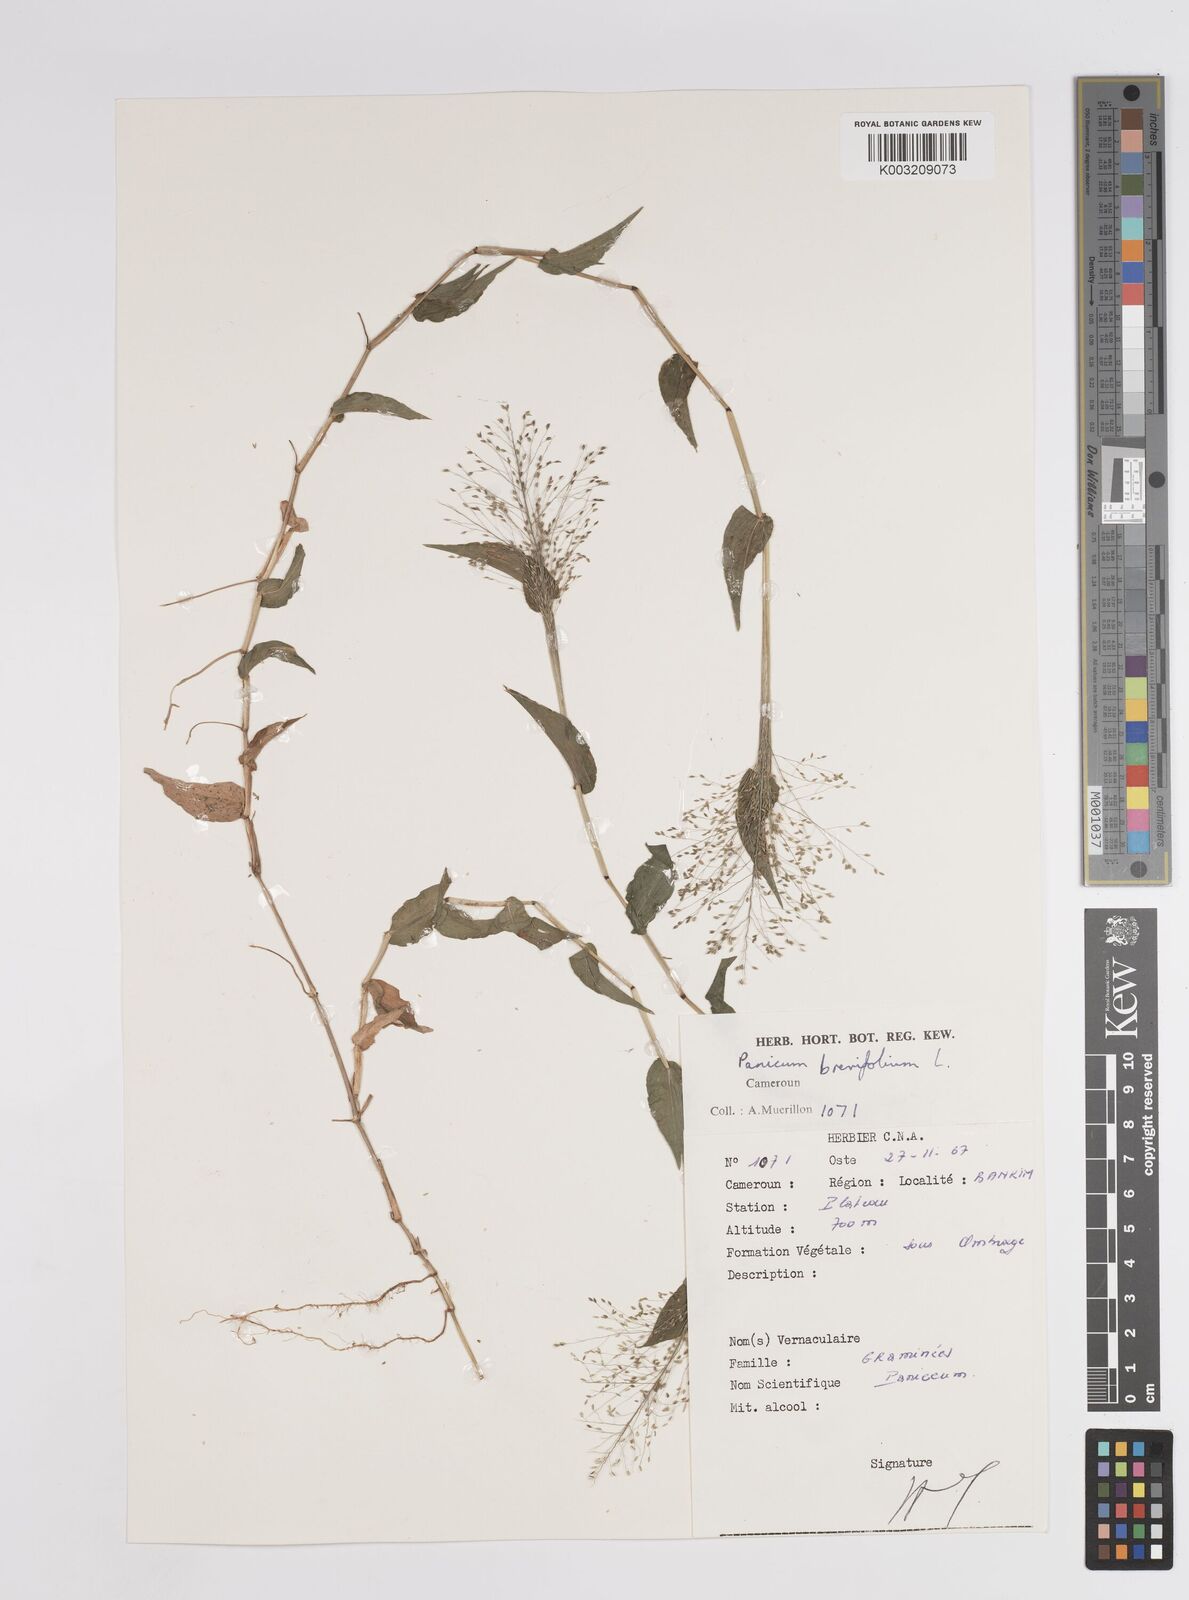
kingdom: Plantae
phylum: Tracheophyta
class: Liliopsida
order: Poales
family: Poaceae
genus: Panicum
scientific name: Panicum brevifolium
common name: Shortleaf panic grass
